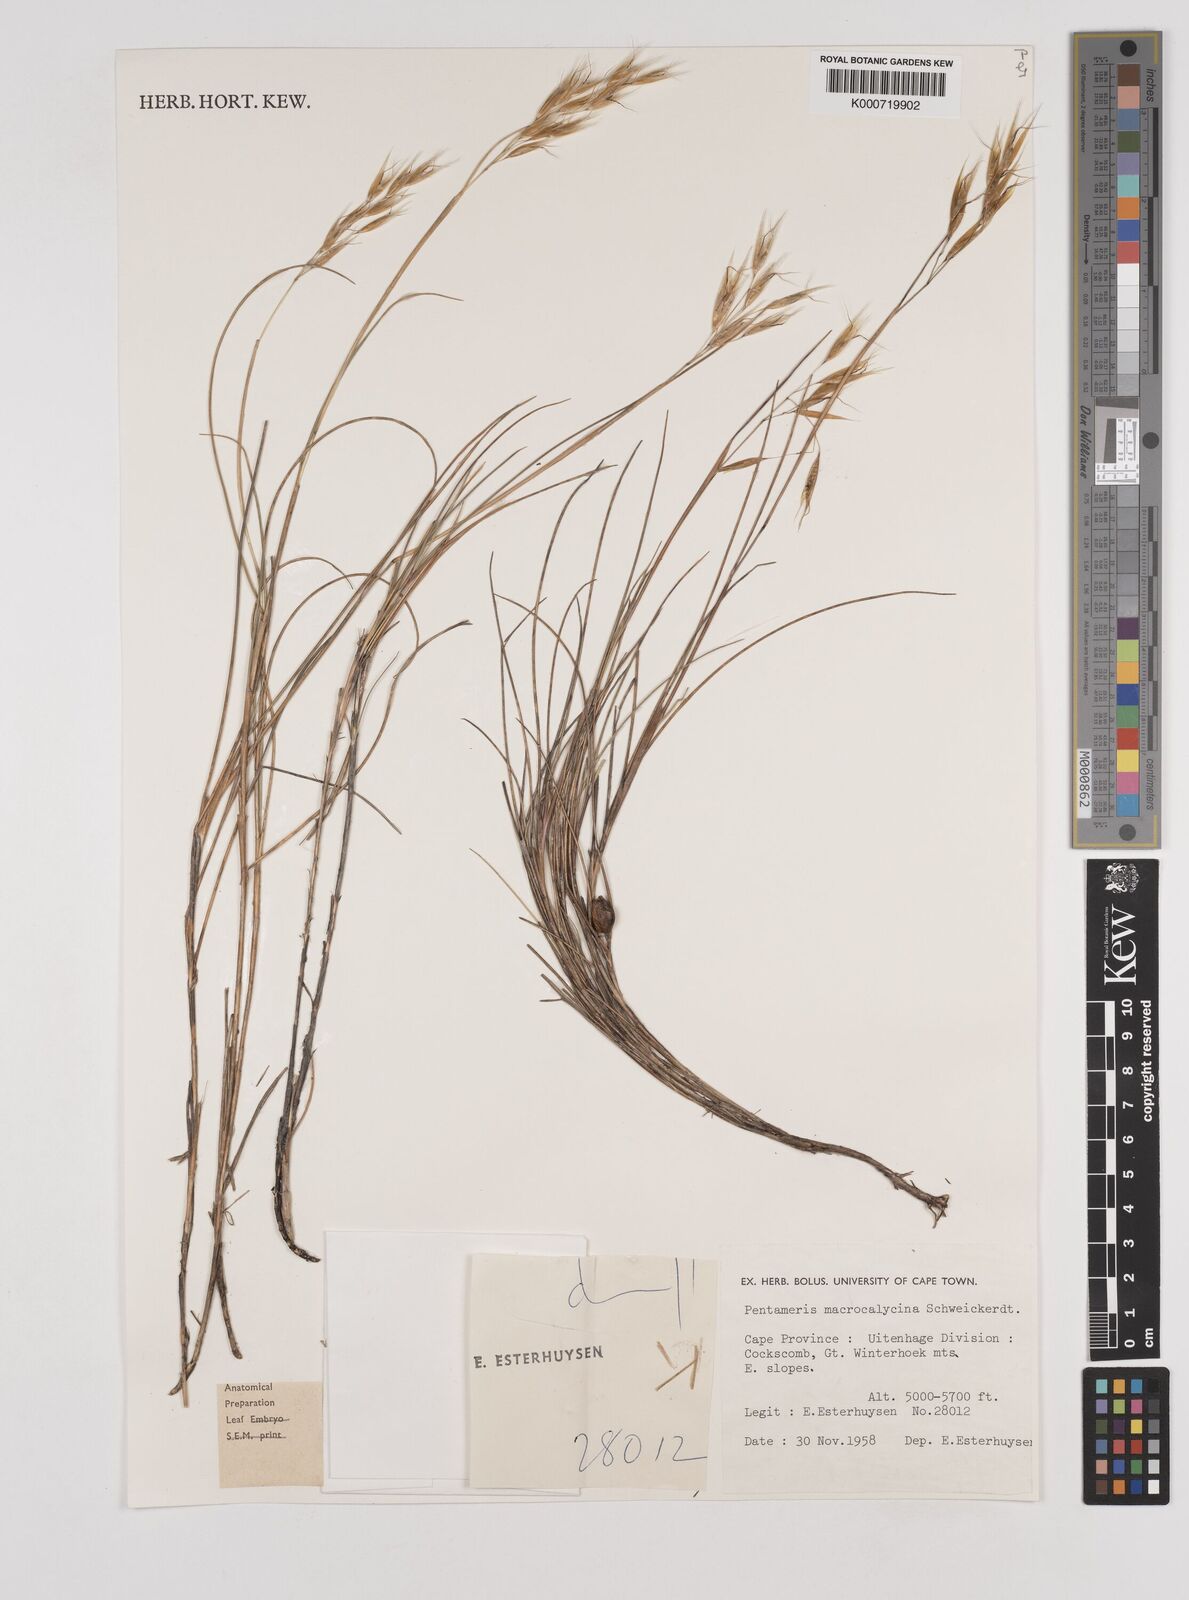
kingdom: Plantae
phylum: Tracheophyta
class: Liliopsida
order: Poales
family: Poaceae
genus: Pentameris
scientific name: Pentameris macrocalycina
